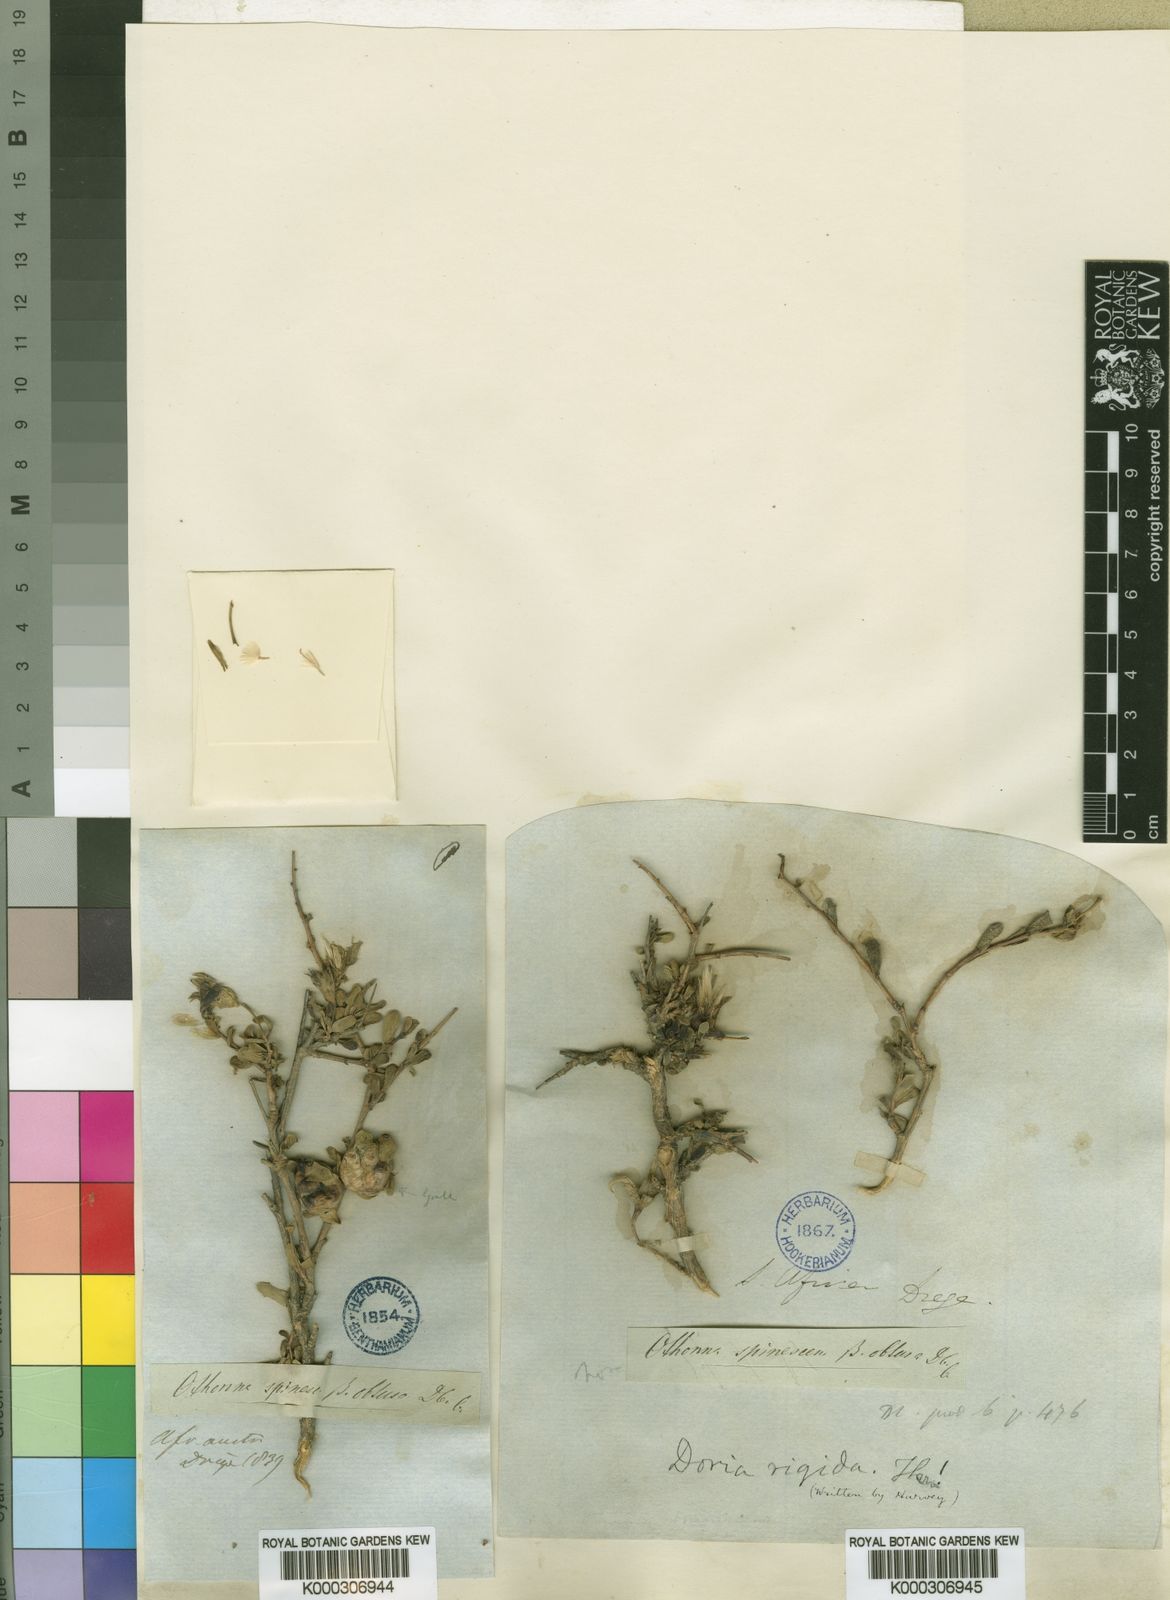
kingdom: Plantae
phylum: Tracheophyta
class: Magnoliopsida
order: Asterales
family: Asteraceae
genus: Othonna
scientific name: Othonna parviflora
